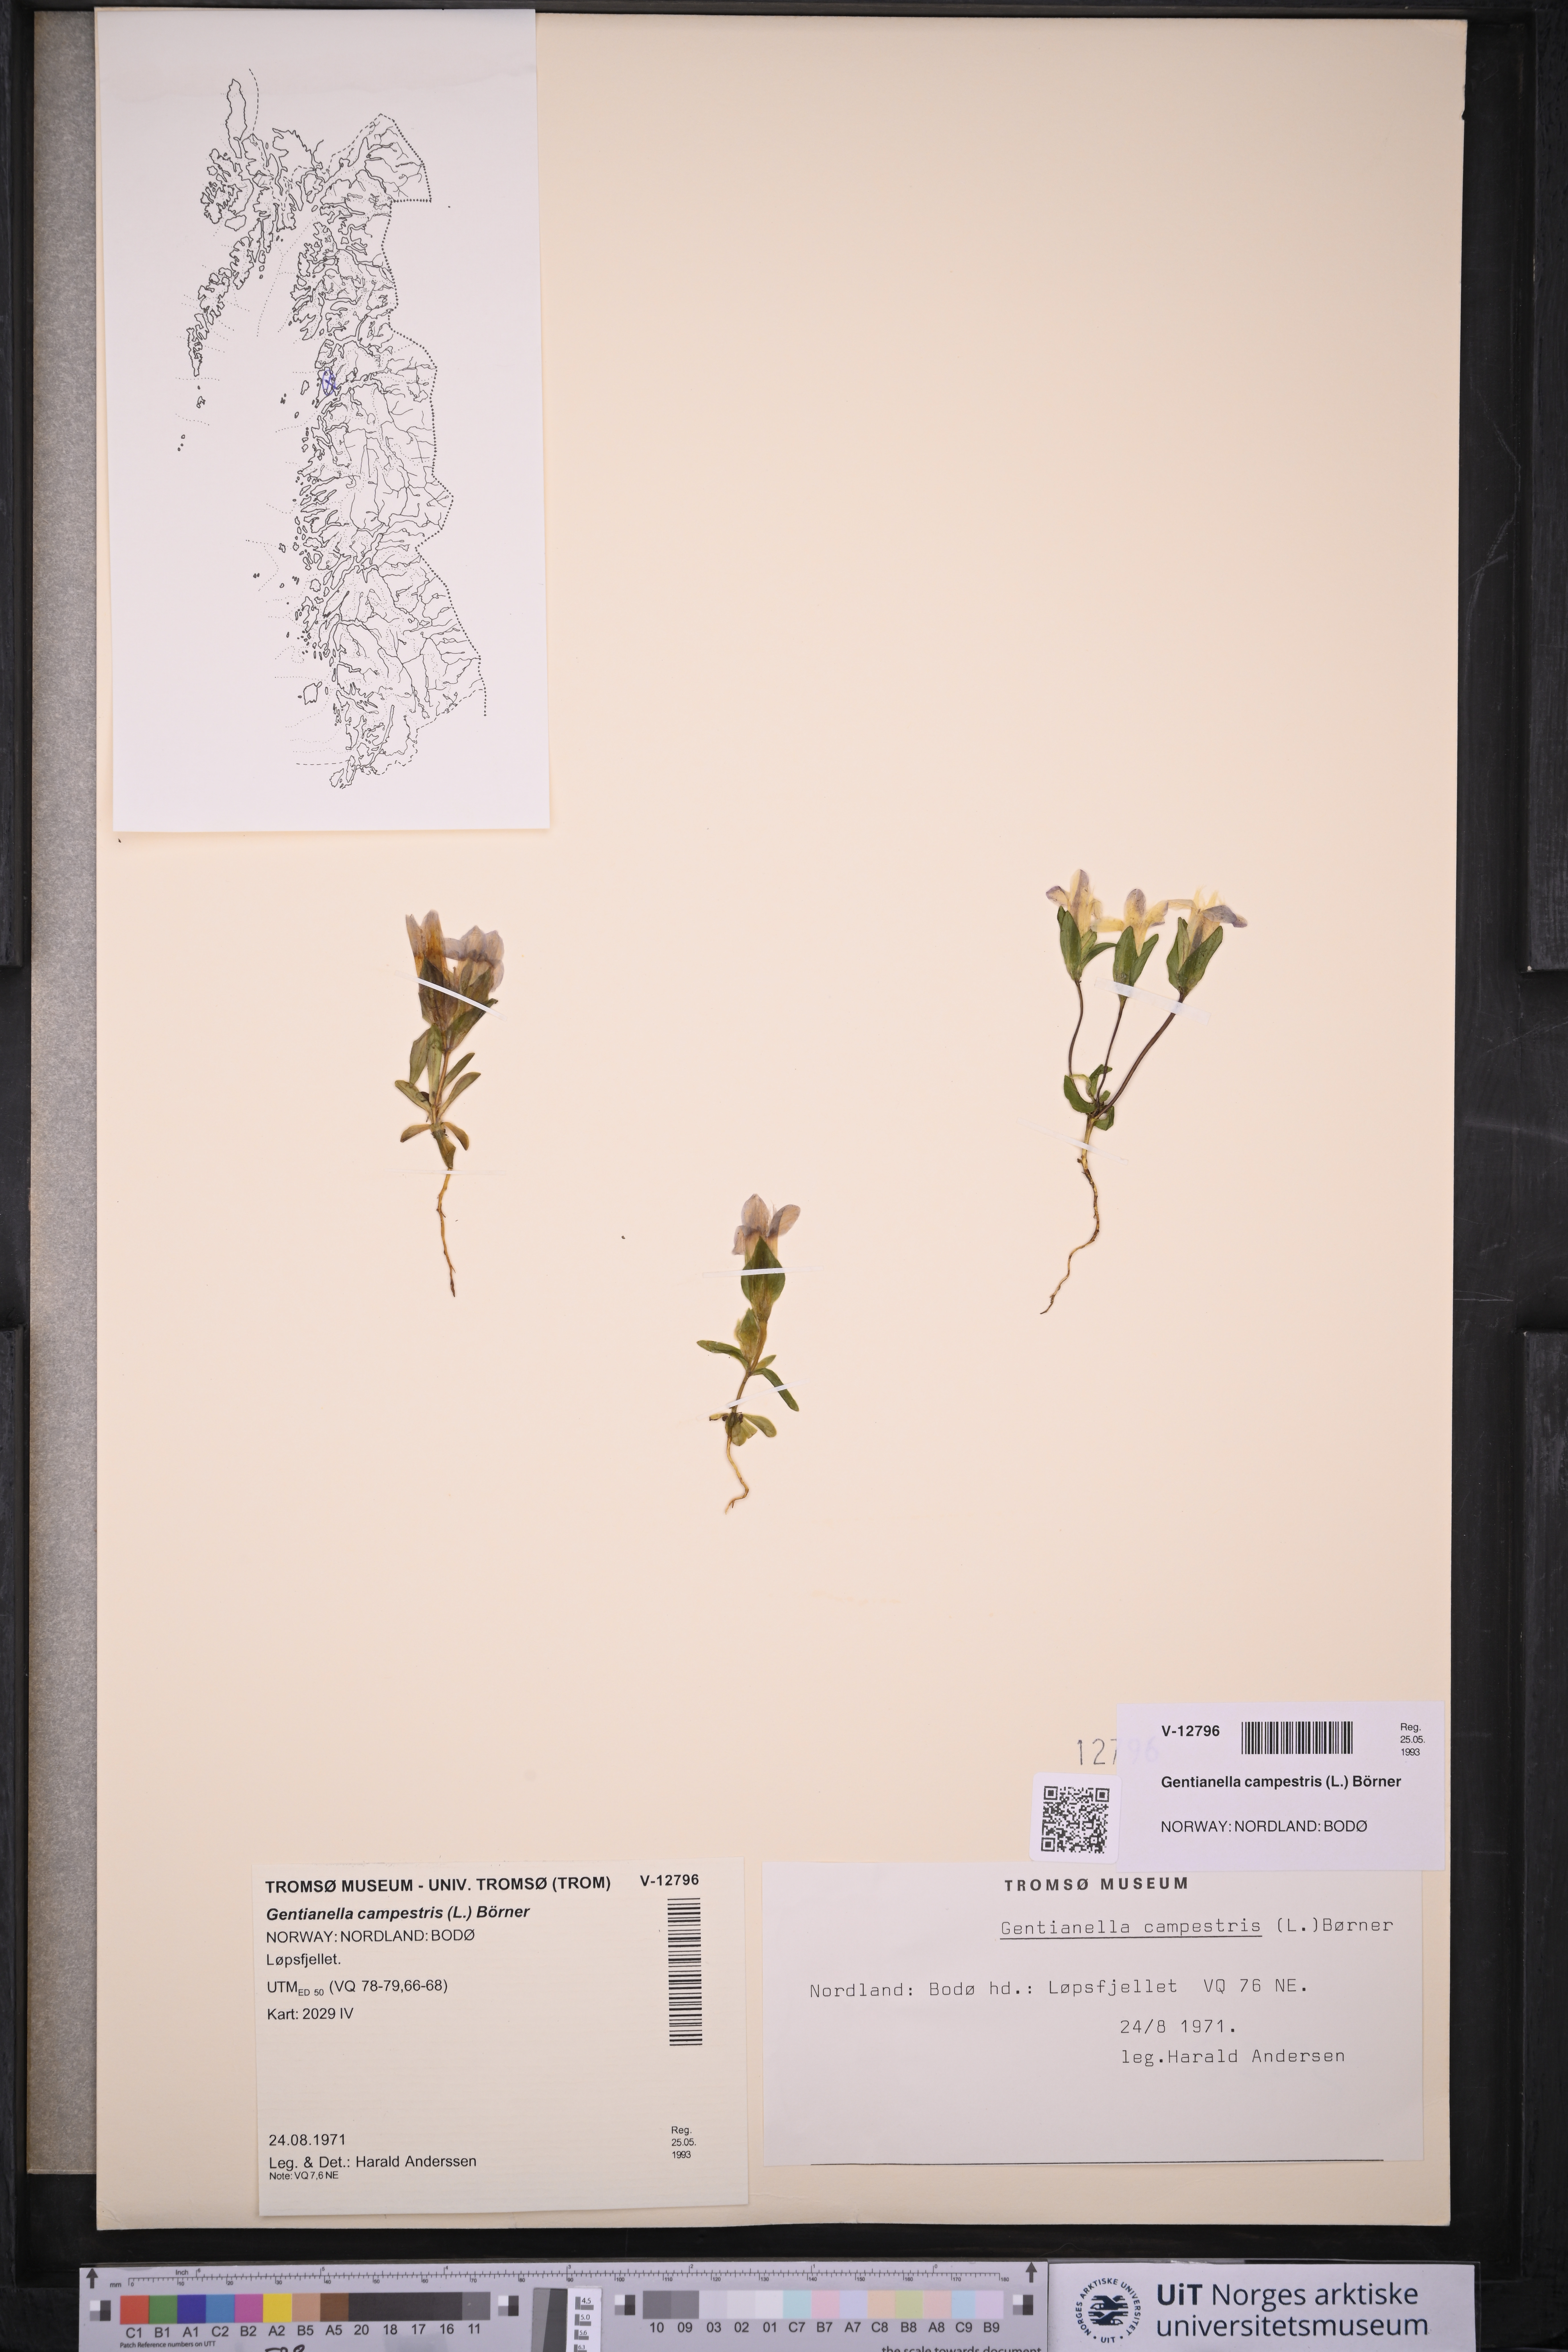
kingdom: Plantae
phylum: Tracheophyta
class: Magnoliopsida
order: Gentianales
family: Gentianaceae
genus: Gentianella
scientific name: Gentianella campestris
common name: Field gentian
